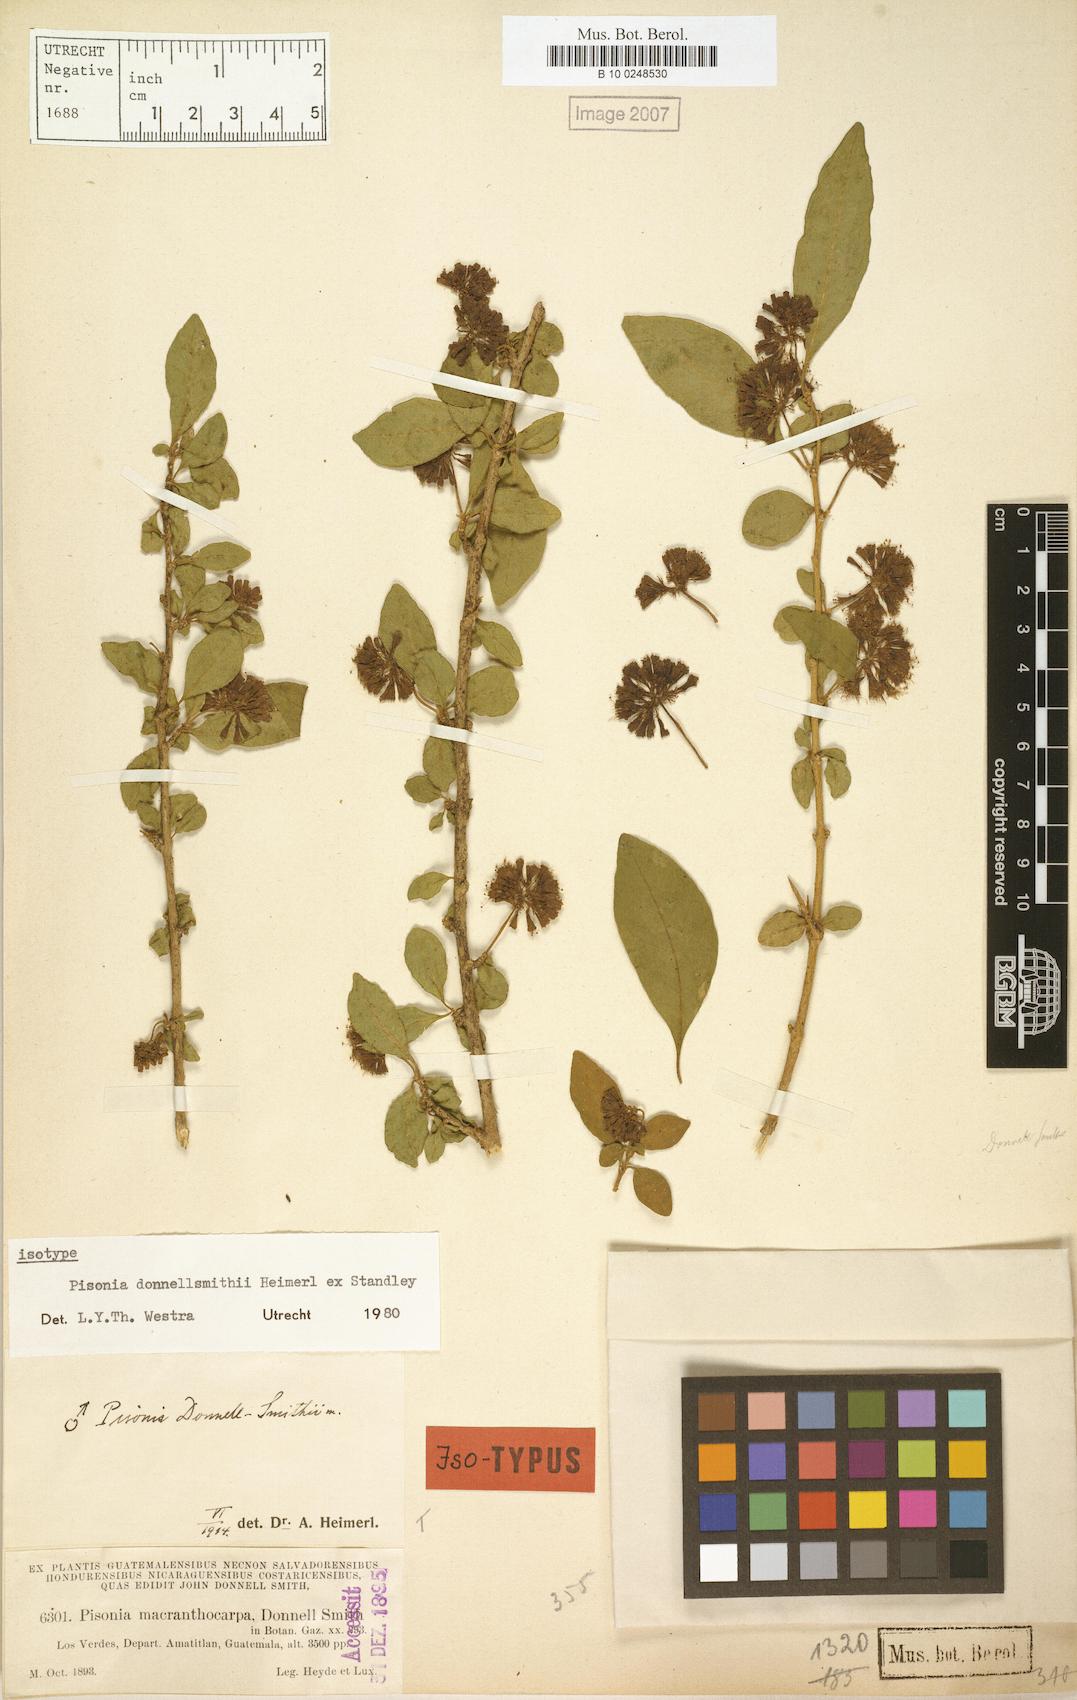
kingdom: Plantae
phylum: Tracheophyta
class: Magnoliopsida
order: Caryophyllales
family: Nyctaginaceae
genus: Pisonia
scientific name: Pisonia donnellsmithii
